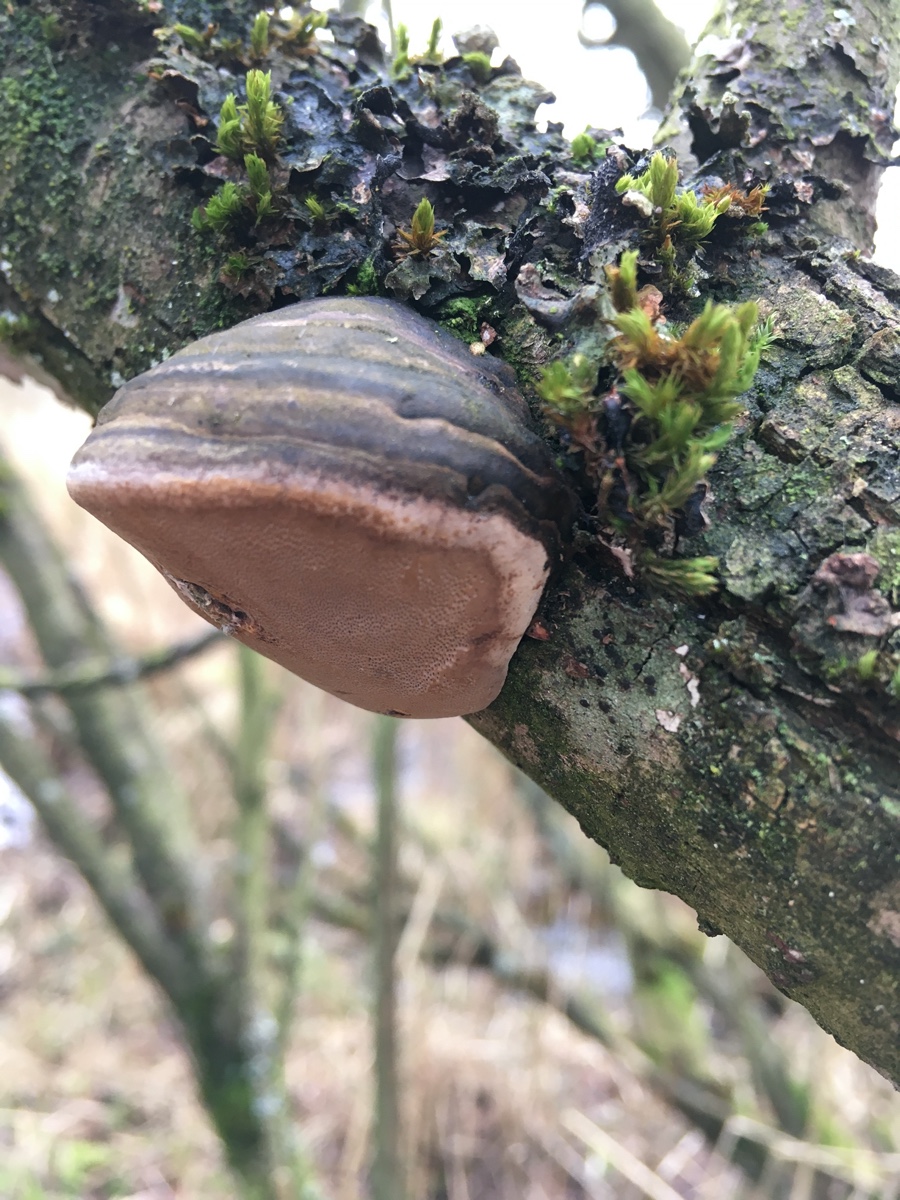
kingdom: Fungi
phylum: Basidiomycota
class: Agaricomycetes
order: Hymenochaetales
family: Hymenochaetaceae
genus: Phellinus
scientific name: Phellinus igniarius
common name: almindelig ildporesvamp
